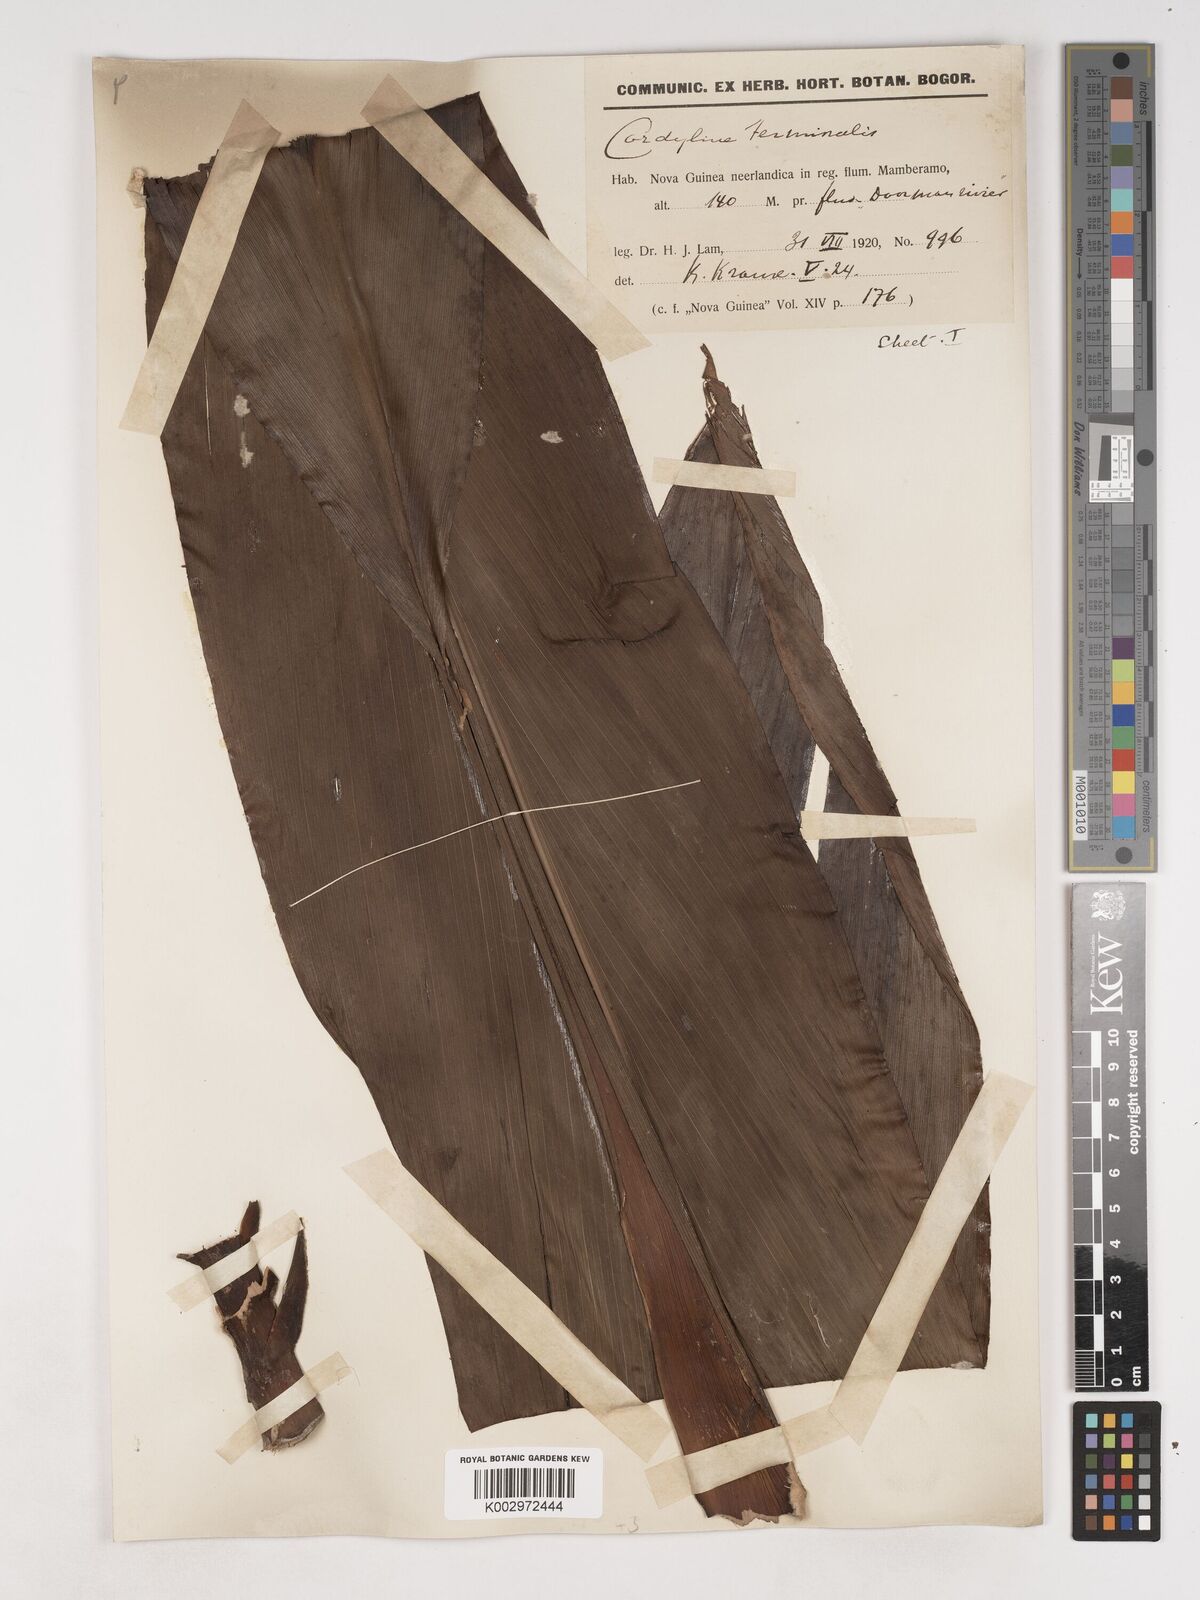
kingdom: Plantae
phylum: Tracheophyta
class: Liliopsida
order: Asparagales
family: Asparagaceae
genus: Cordyline
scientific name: Cordyline fruticosa
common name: Good-luck-plant
